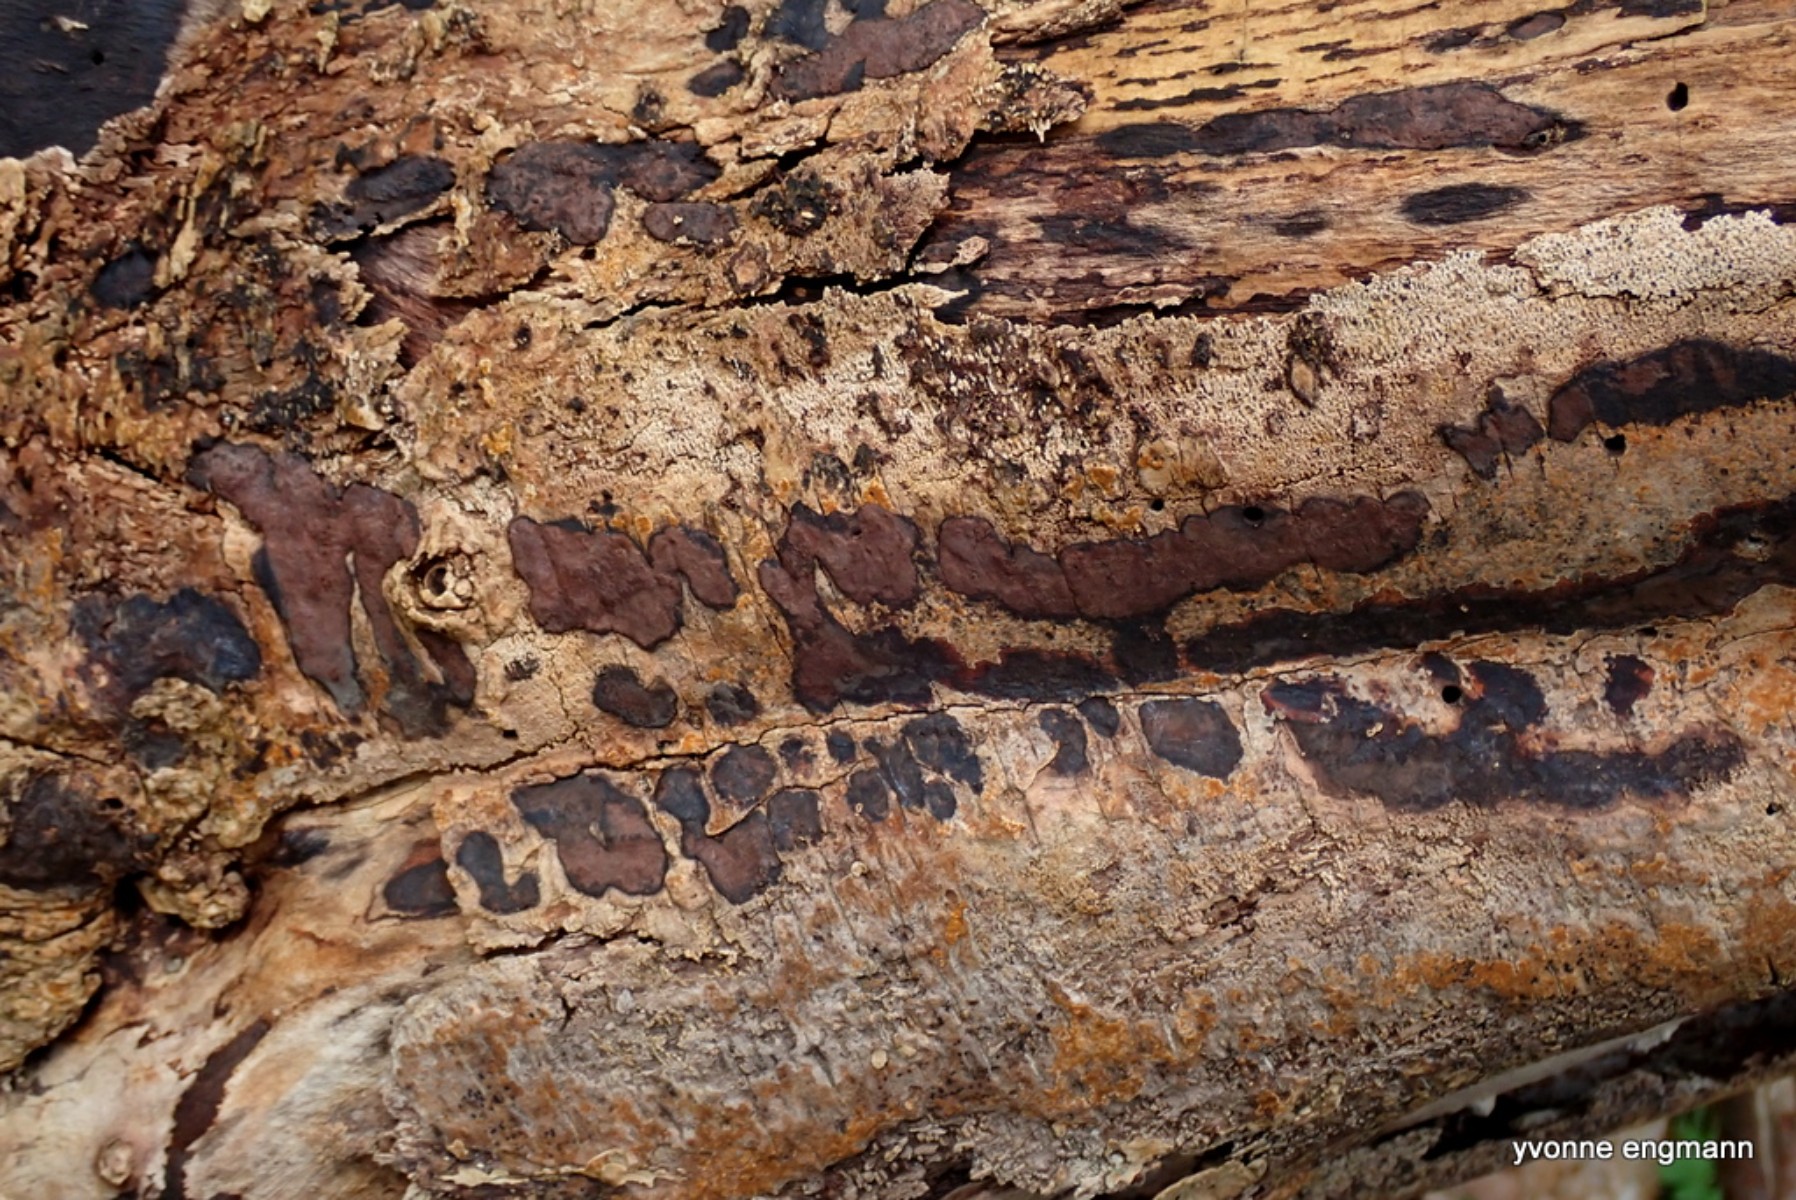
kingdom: Fungi
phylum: Ascomycota
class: Sordariomycetes
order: Xylariales
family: Hypoxylaceae
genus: Hypoxylon
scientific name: Hypoxylon petriniae
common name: nedsænket kulbær
